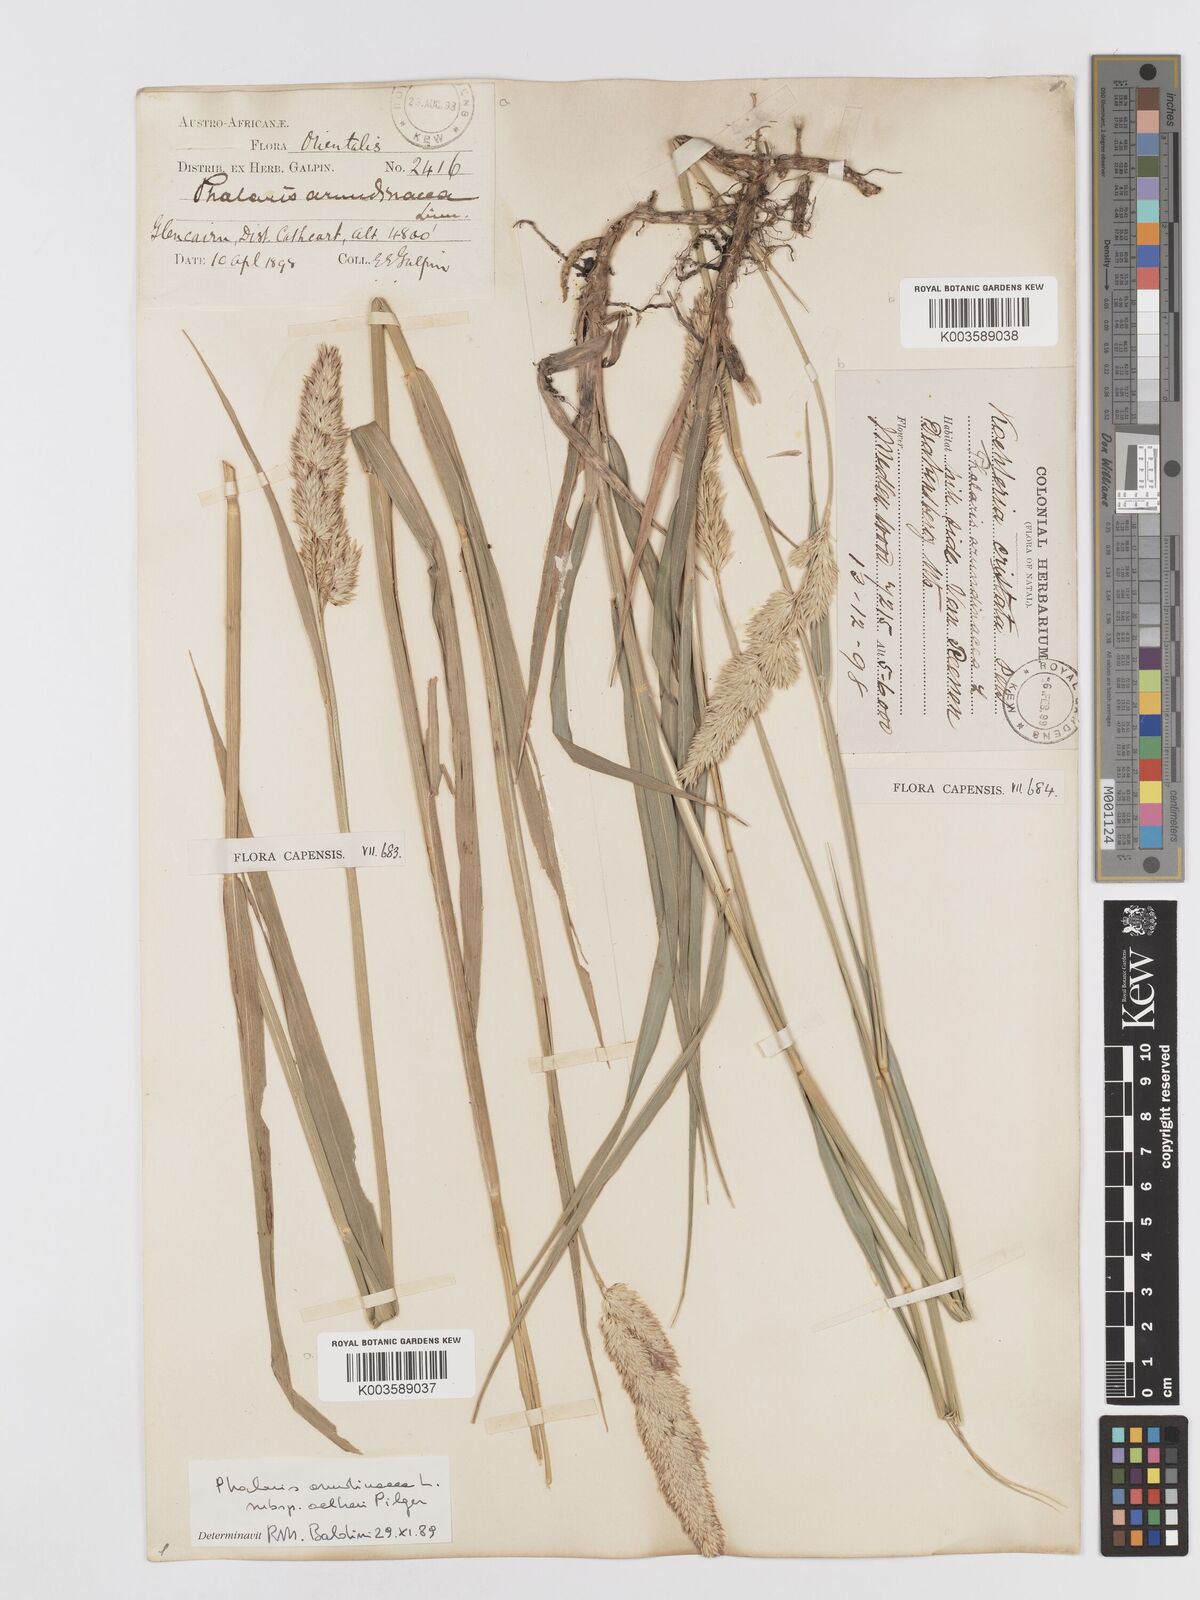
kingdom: Plantae
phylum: Tracheophyta
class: Liliopsida
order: Poales
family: Poaceae
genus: Phalaris
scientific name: Phalaris arundinacea
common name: Reed canary-grass
